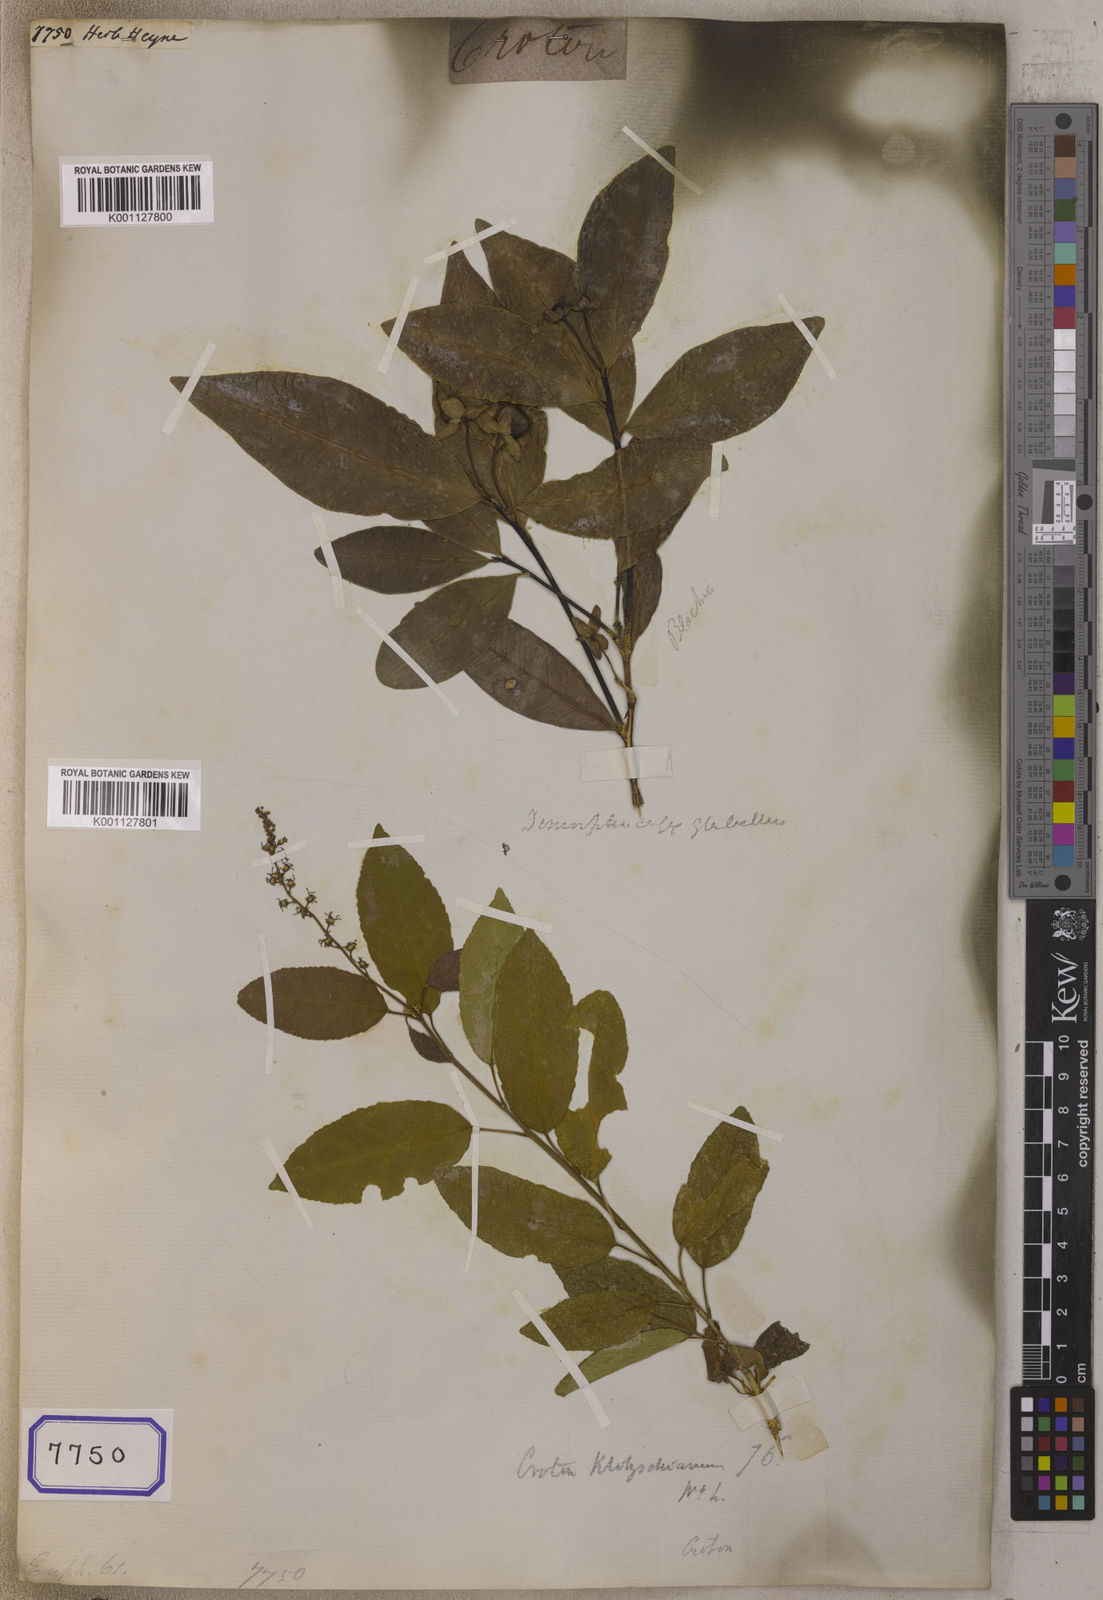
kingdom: Plantae
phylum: Tracheophyta
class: Magnoliopsida
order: Malpighiales
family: Euphorbiaceae
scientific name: Euphorbiaceae
